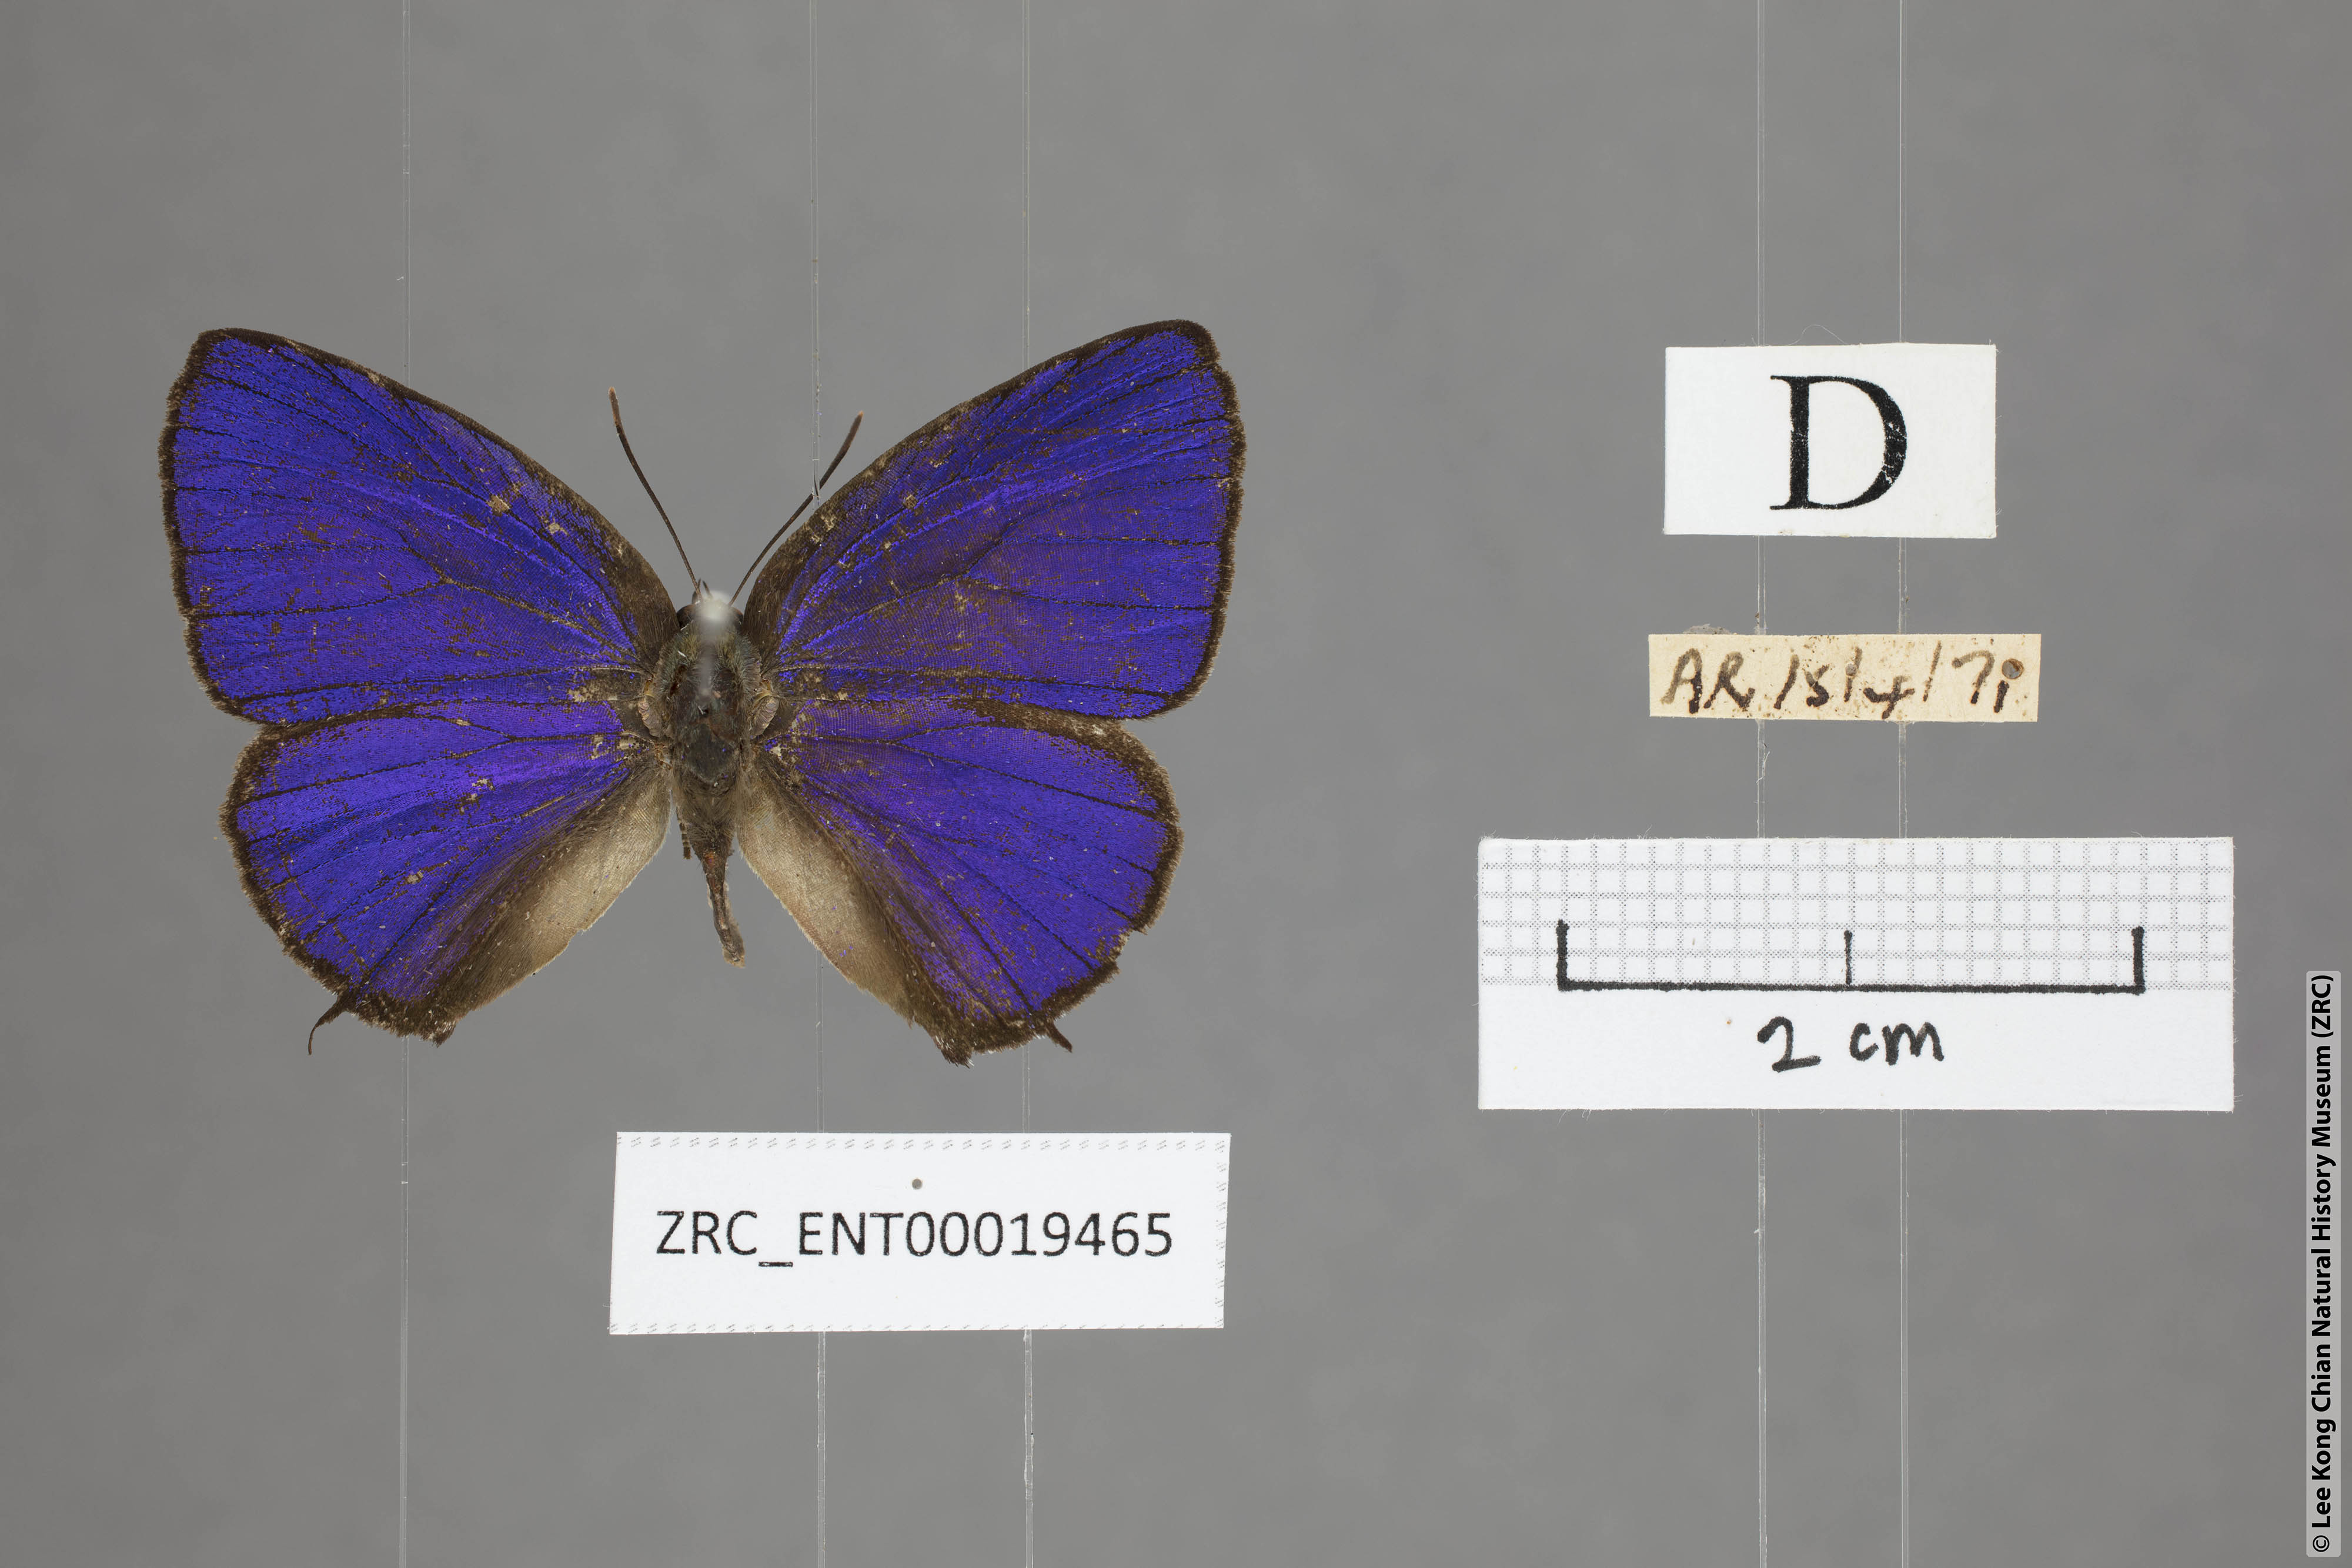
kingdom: Animalia
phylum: Arthropoda
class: Insecta
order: Lepidoptera
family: Lycaenidae
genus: Arhopala
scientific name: Arhopala azinis
